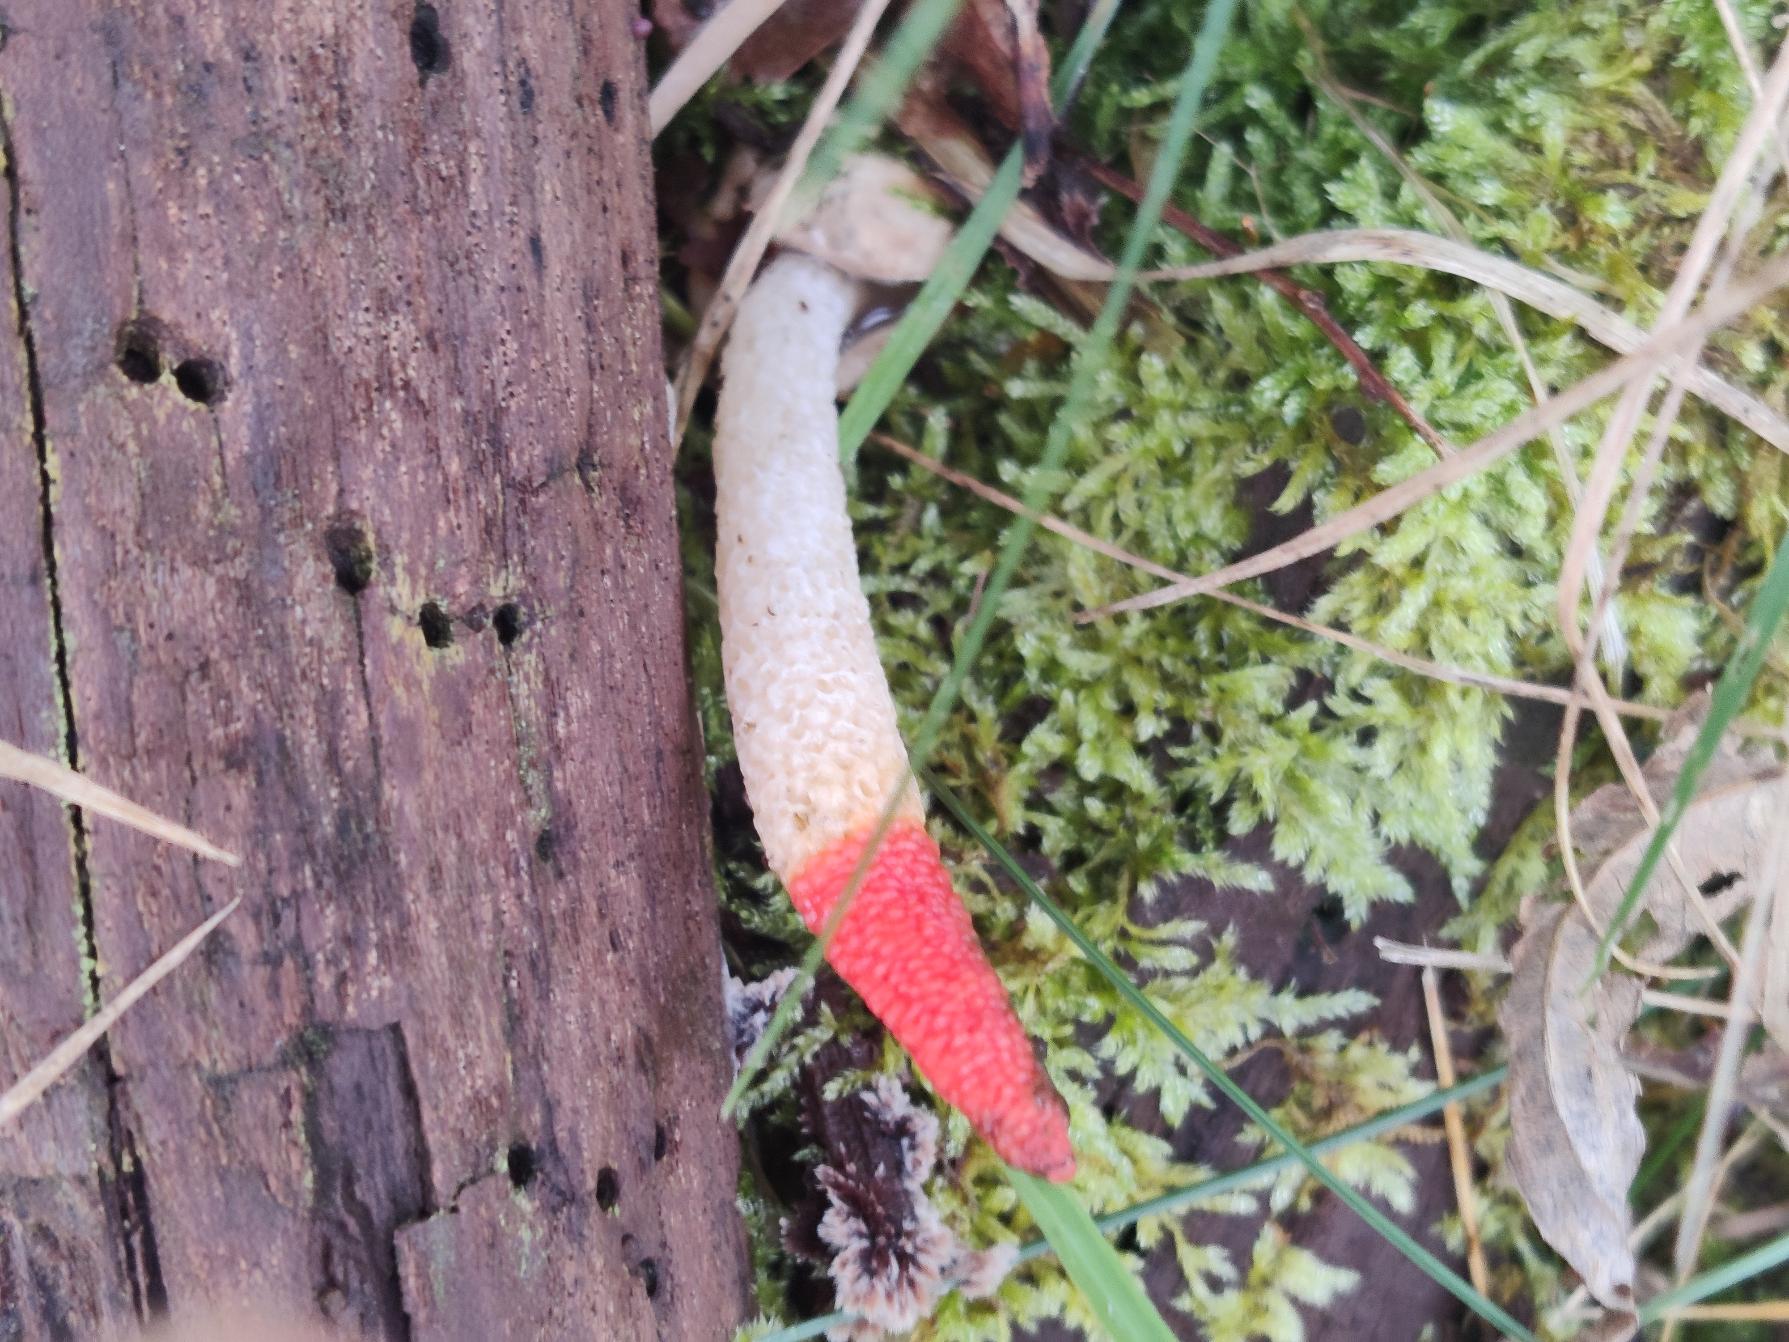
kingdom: Fungi
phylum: Basidiomycota
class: Agaricomycetes
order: Phallales
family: Phallaceae
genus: Mutinus
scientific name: Mutinus caninus
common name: Hunde-stinksvamp
